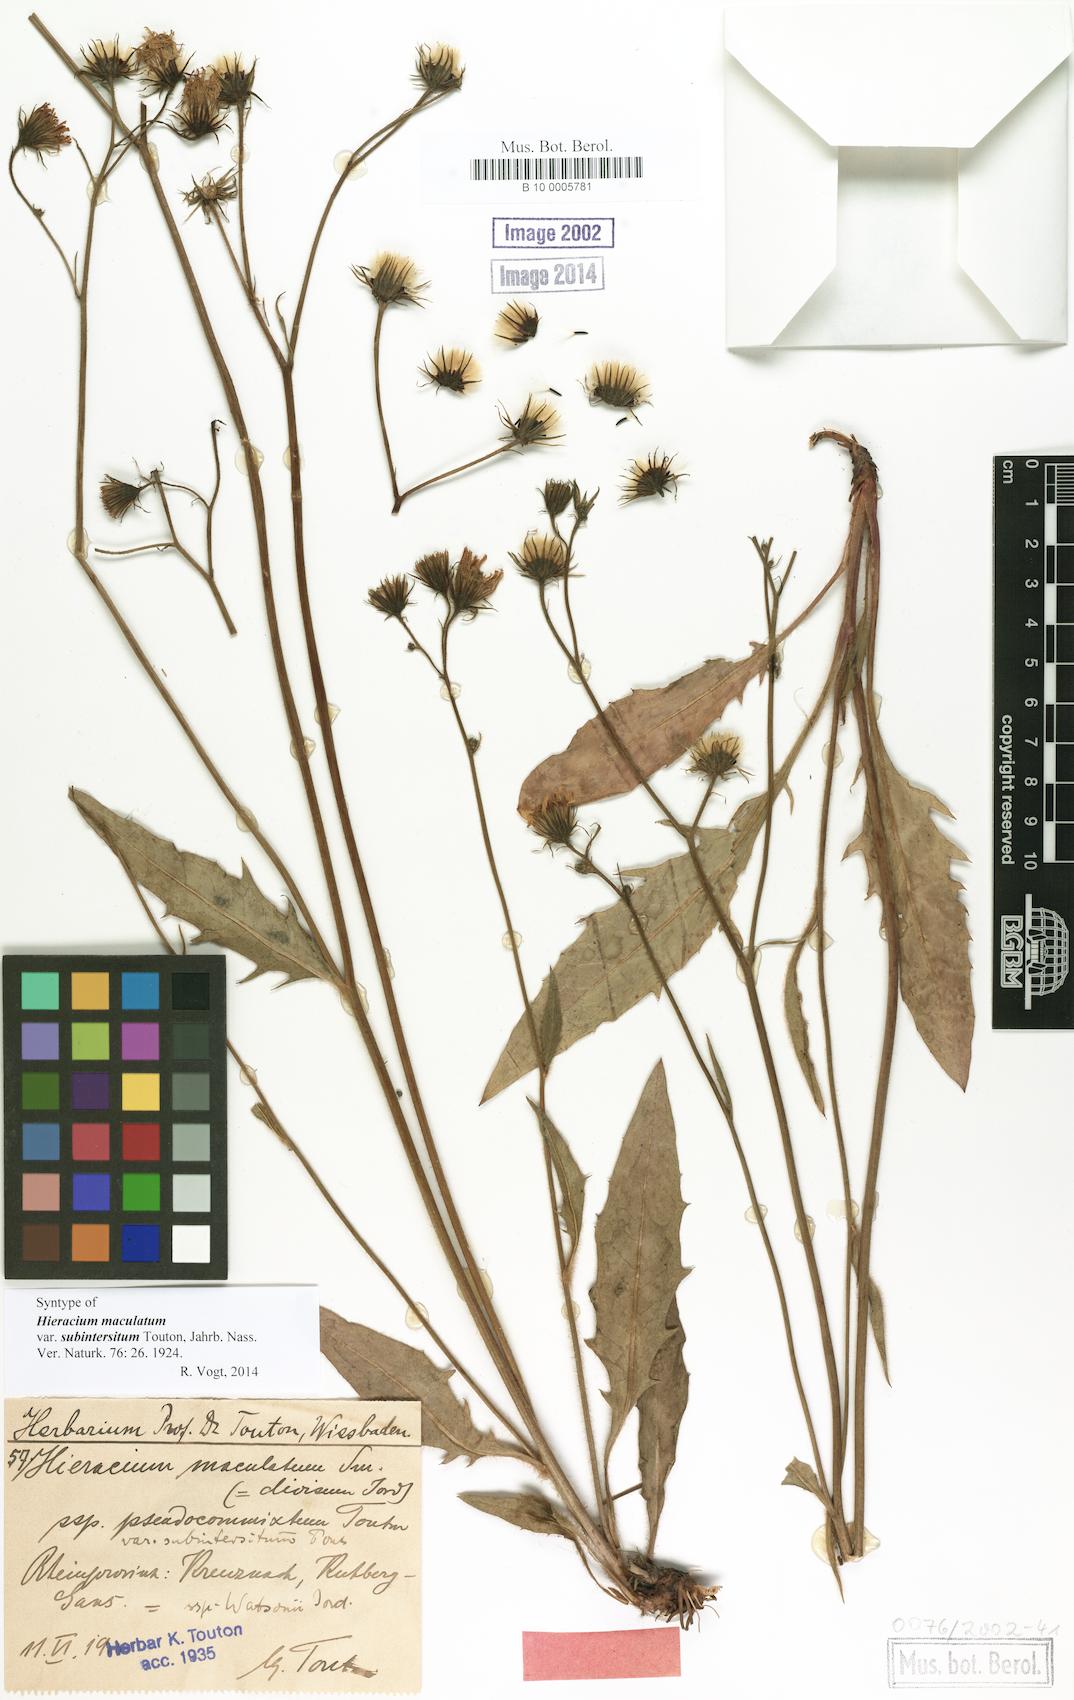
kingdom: Plantae
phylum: Tracheophyta
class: Magnoliopsida
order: Asterales
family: Asteraceae
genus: Hieracium
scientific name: Hieracium maculatum
